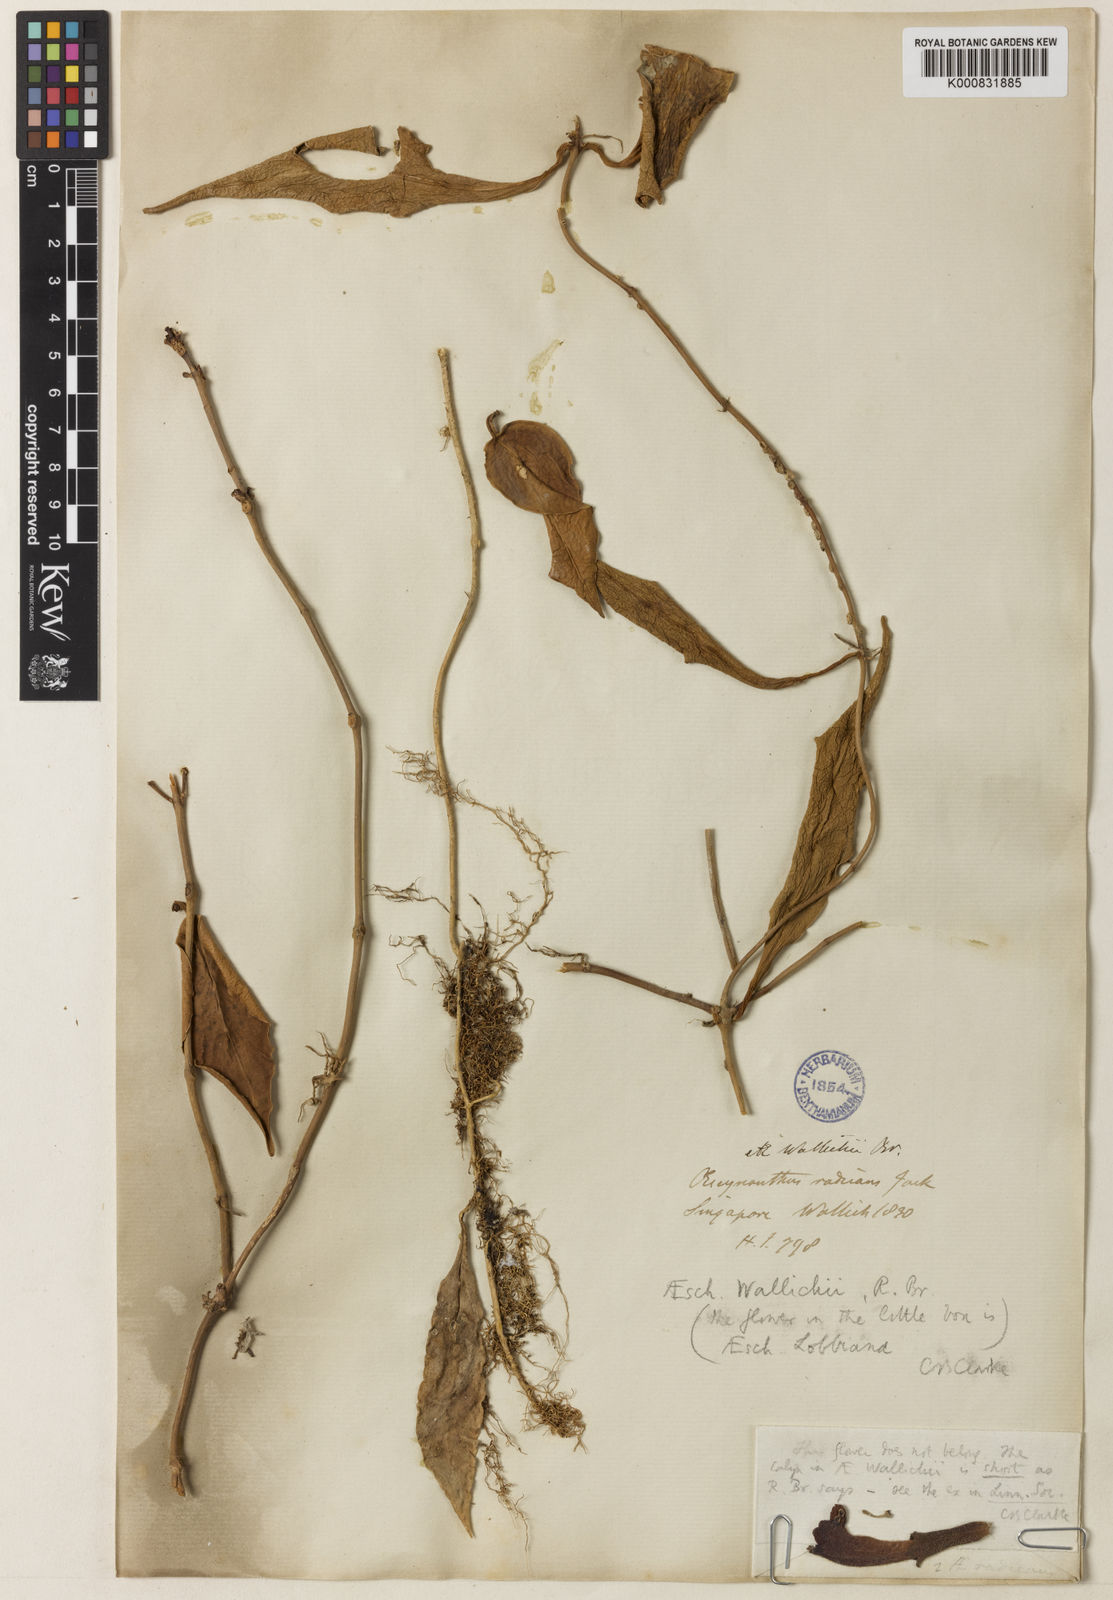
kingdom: Plantae
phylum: Tracheophyta
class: Magnoliopsida
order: Lamiales
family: Gesneriaceae
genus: Aeschynanthus
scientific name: Aeschynanthus
